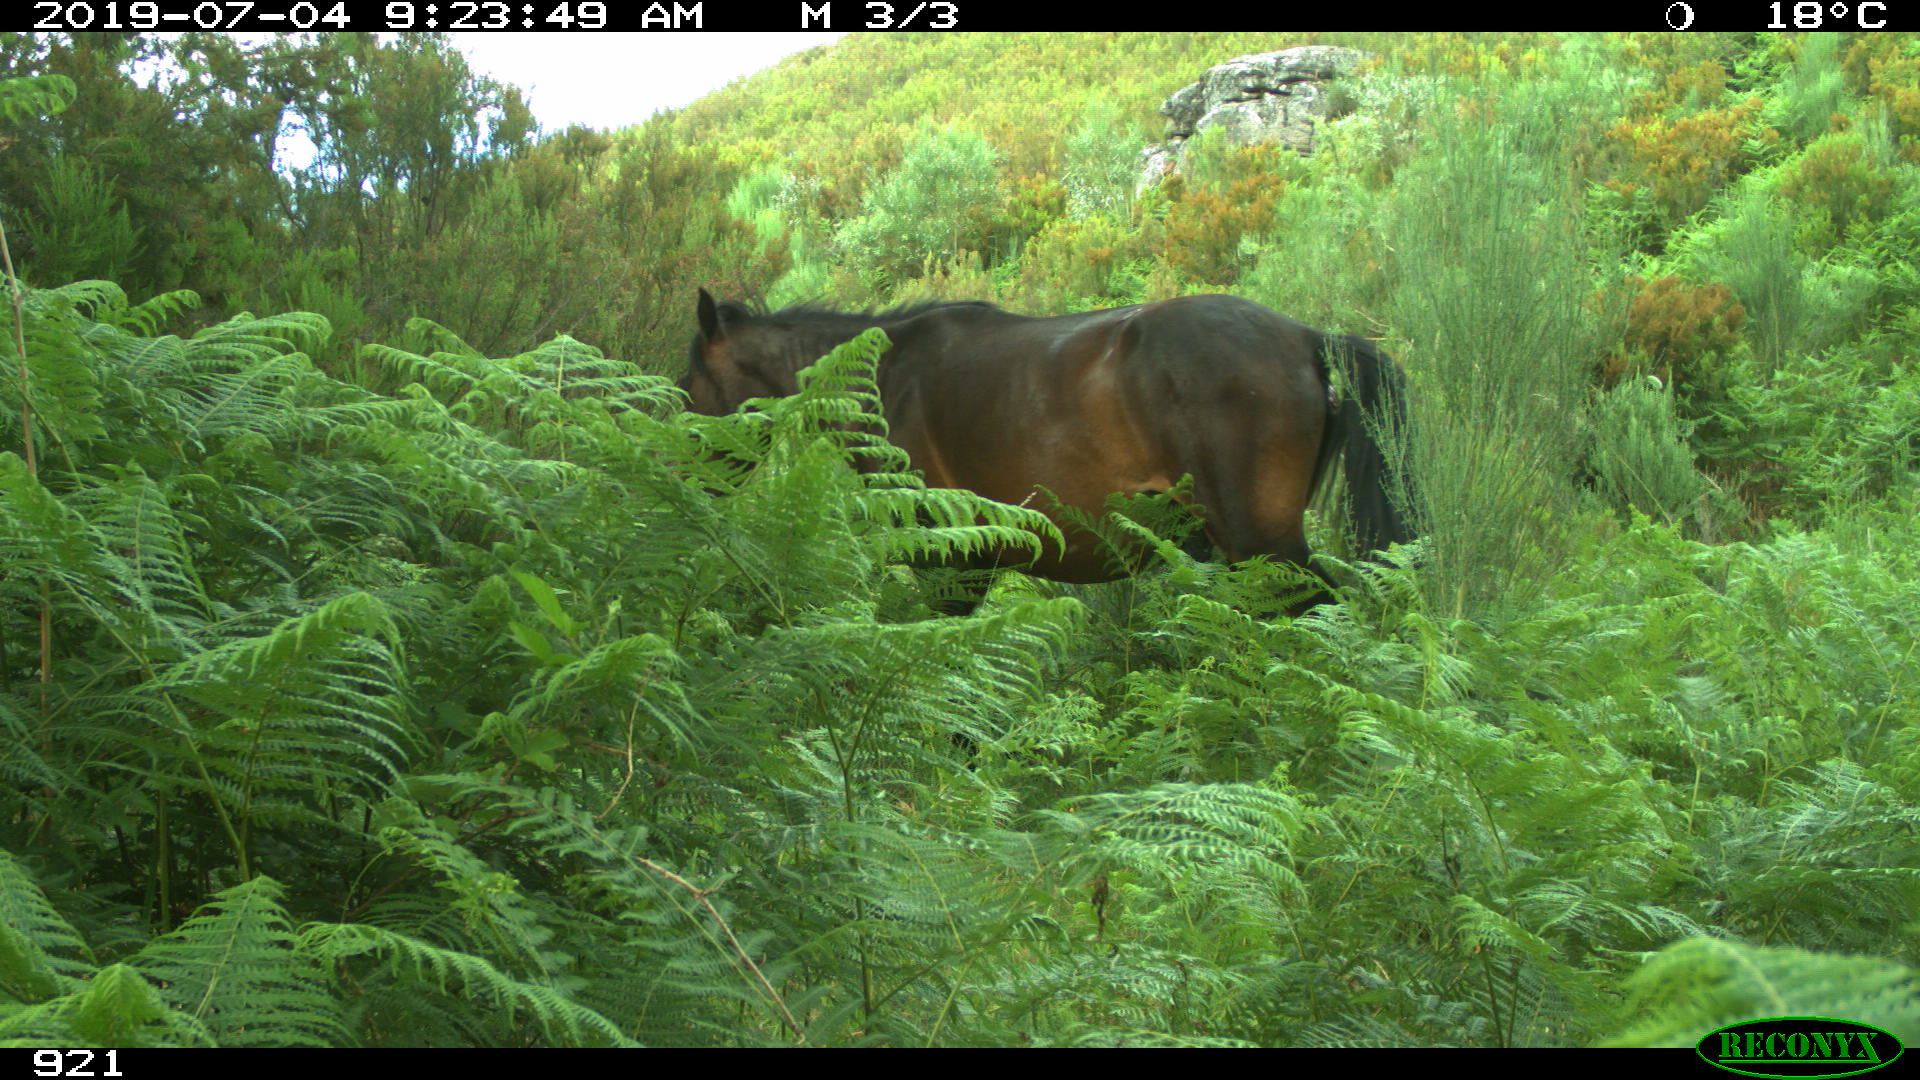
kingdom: Animalia
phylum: Chordata
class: Mammalia
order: Perissodactyla
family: Equidae
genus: Equus
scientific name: Equus caballus
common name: Horse
